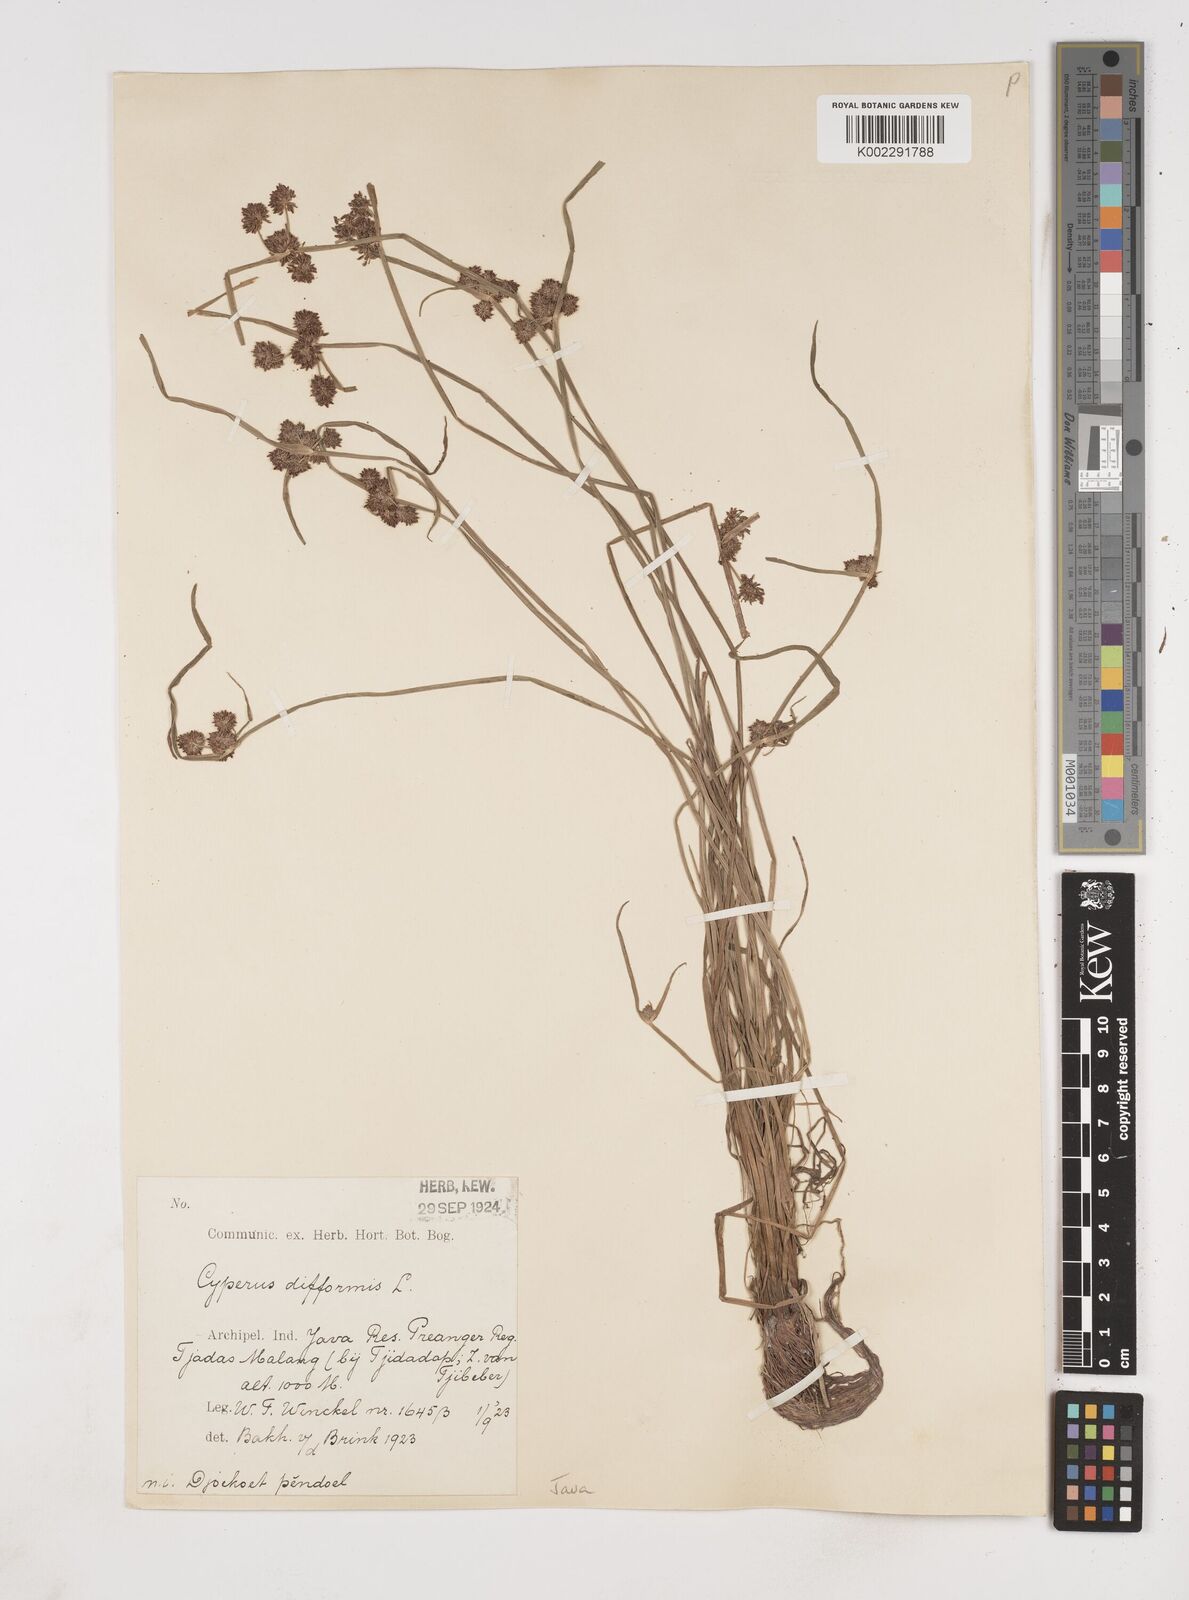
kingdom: Plantae
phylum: Tracheophyta
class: Liliopsida
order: Poales
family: Cyperaceae
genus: Cyperus
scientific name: Cyperus difformis
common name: Variable flatsedge
